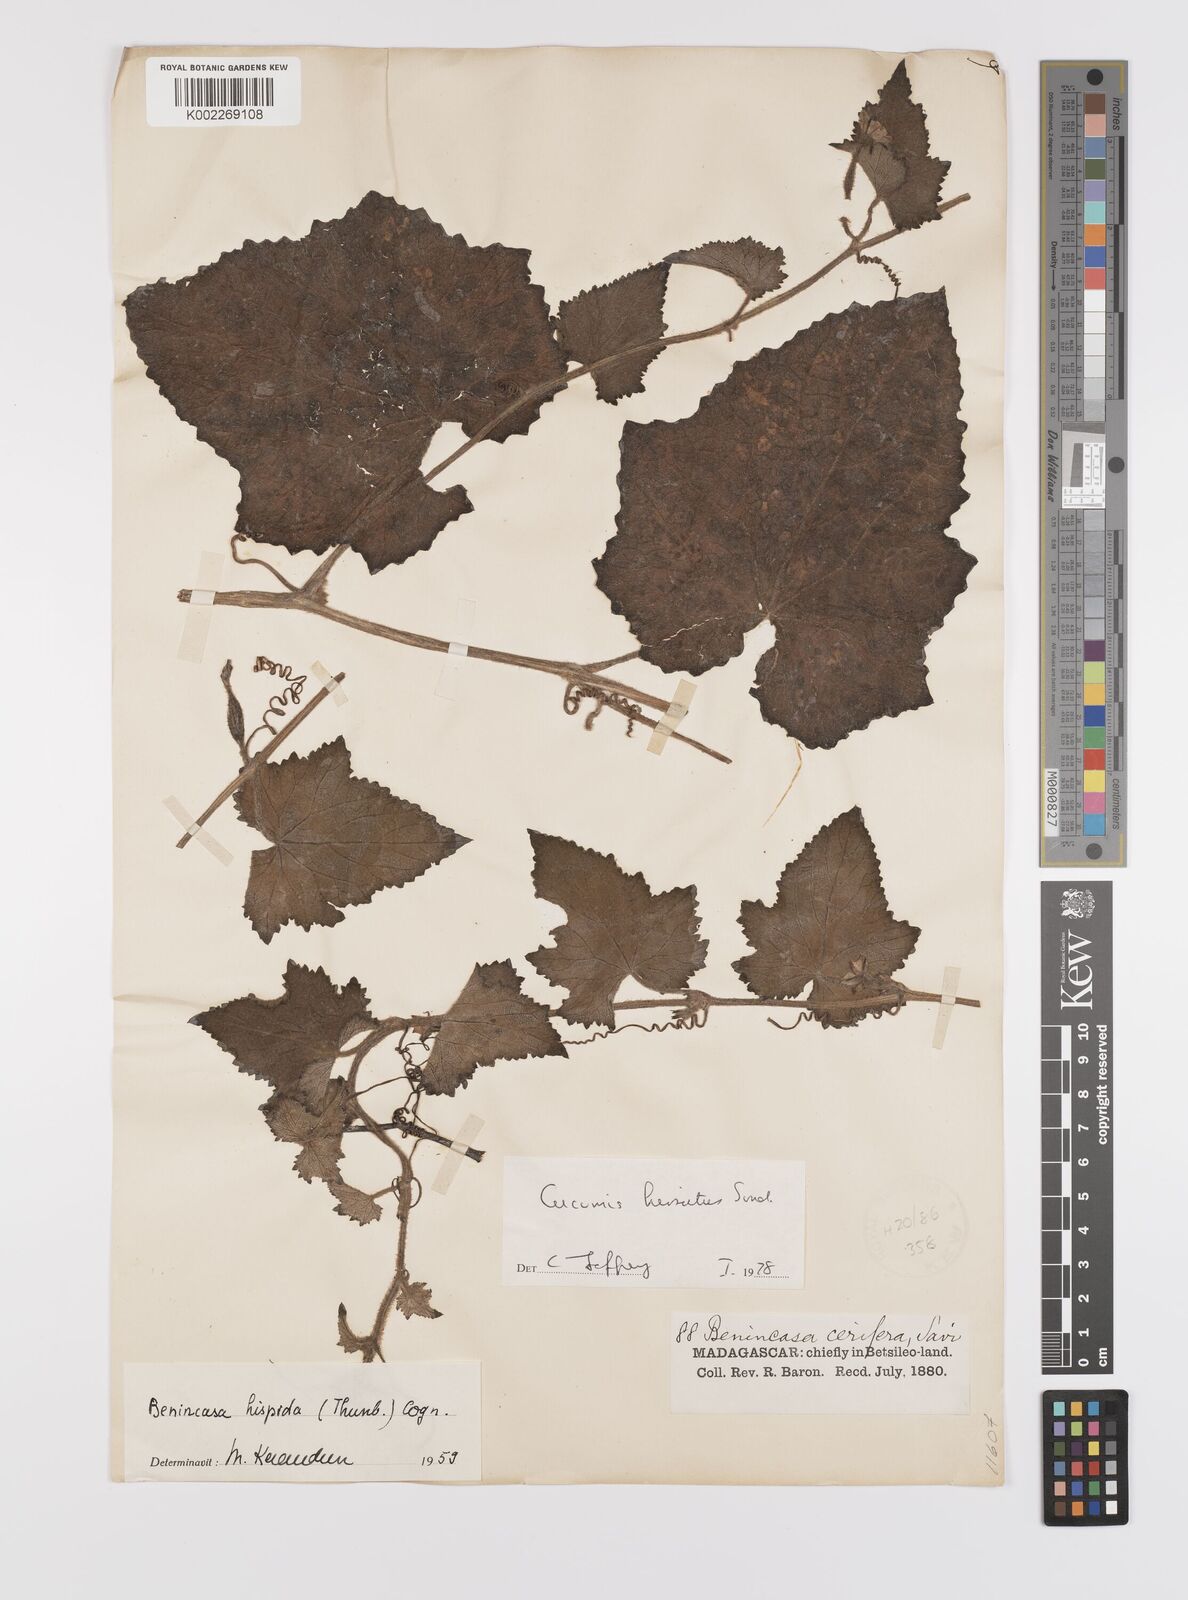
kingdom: Plantae
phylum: Tracheophyta
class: Magnoliopsida
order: Cucurbitales
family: Cucurbitaceae
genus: Cucumis
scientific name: Cucumis hirsutus
